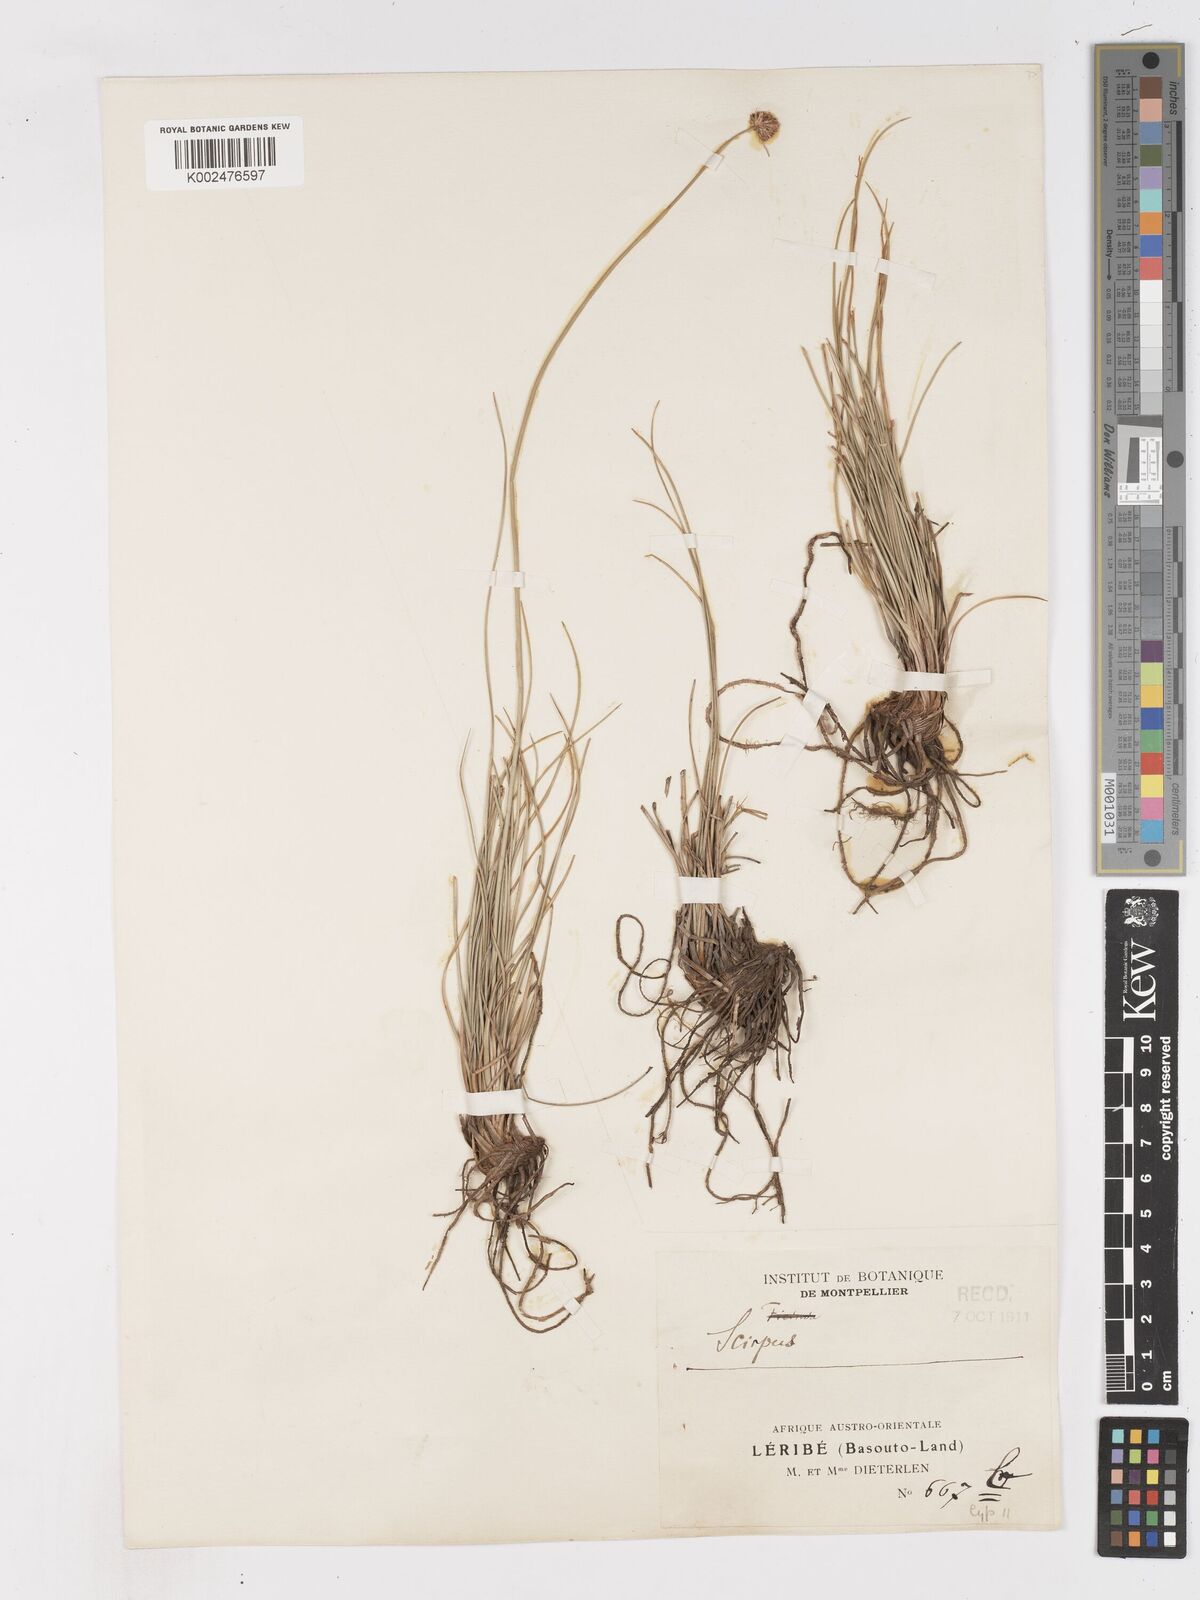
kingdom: Plantae
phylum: Tracheophyta
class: Liliopsida
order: Poales
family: Cyperaceae
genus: Ficinia
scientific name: Ficinia
